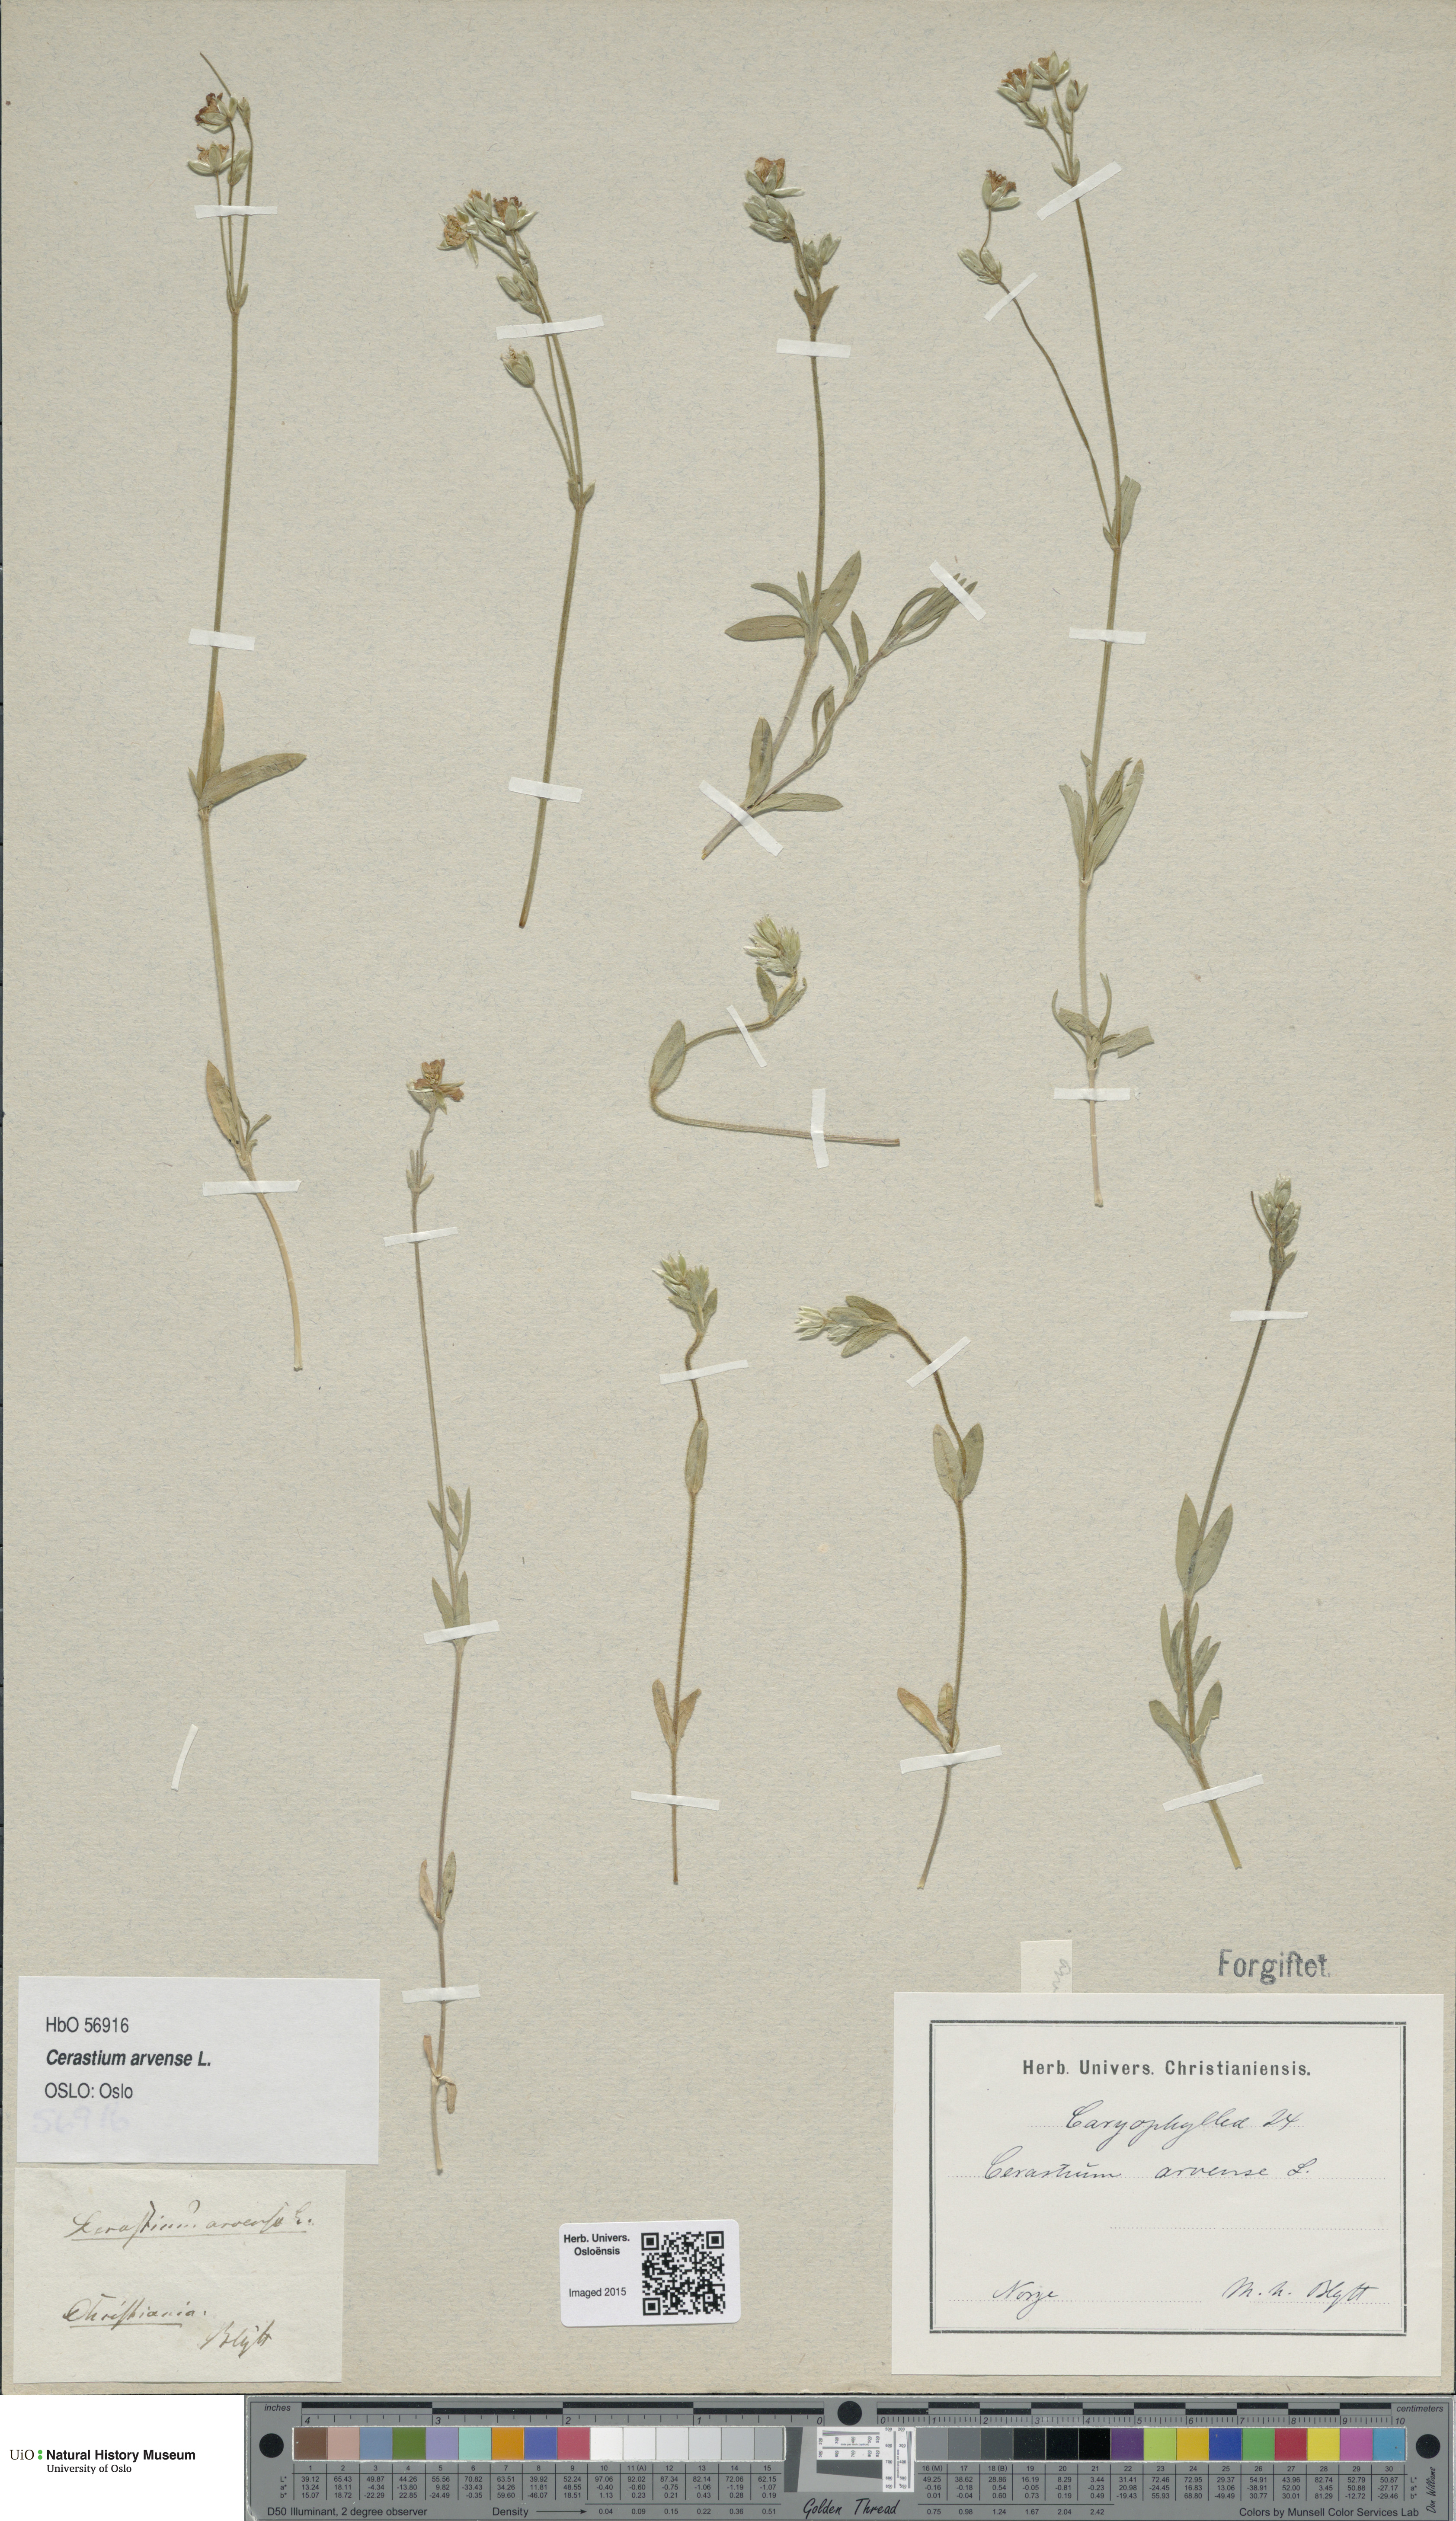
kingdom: Plantae
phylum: Tracheophyta
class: Magnoliopsida
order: Caryophyllales
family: Caryophyllaceae
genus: Cerastium
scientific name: Cerastium arvense
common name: Field mouse-ear
